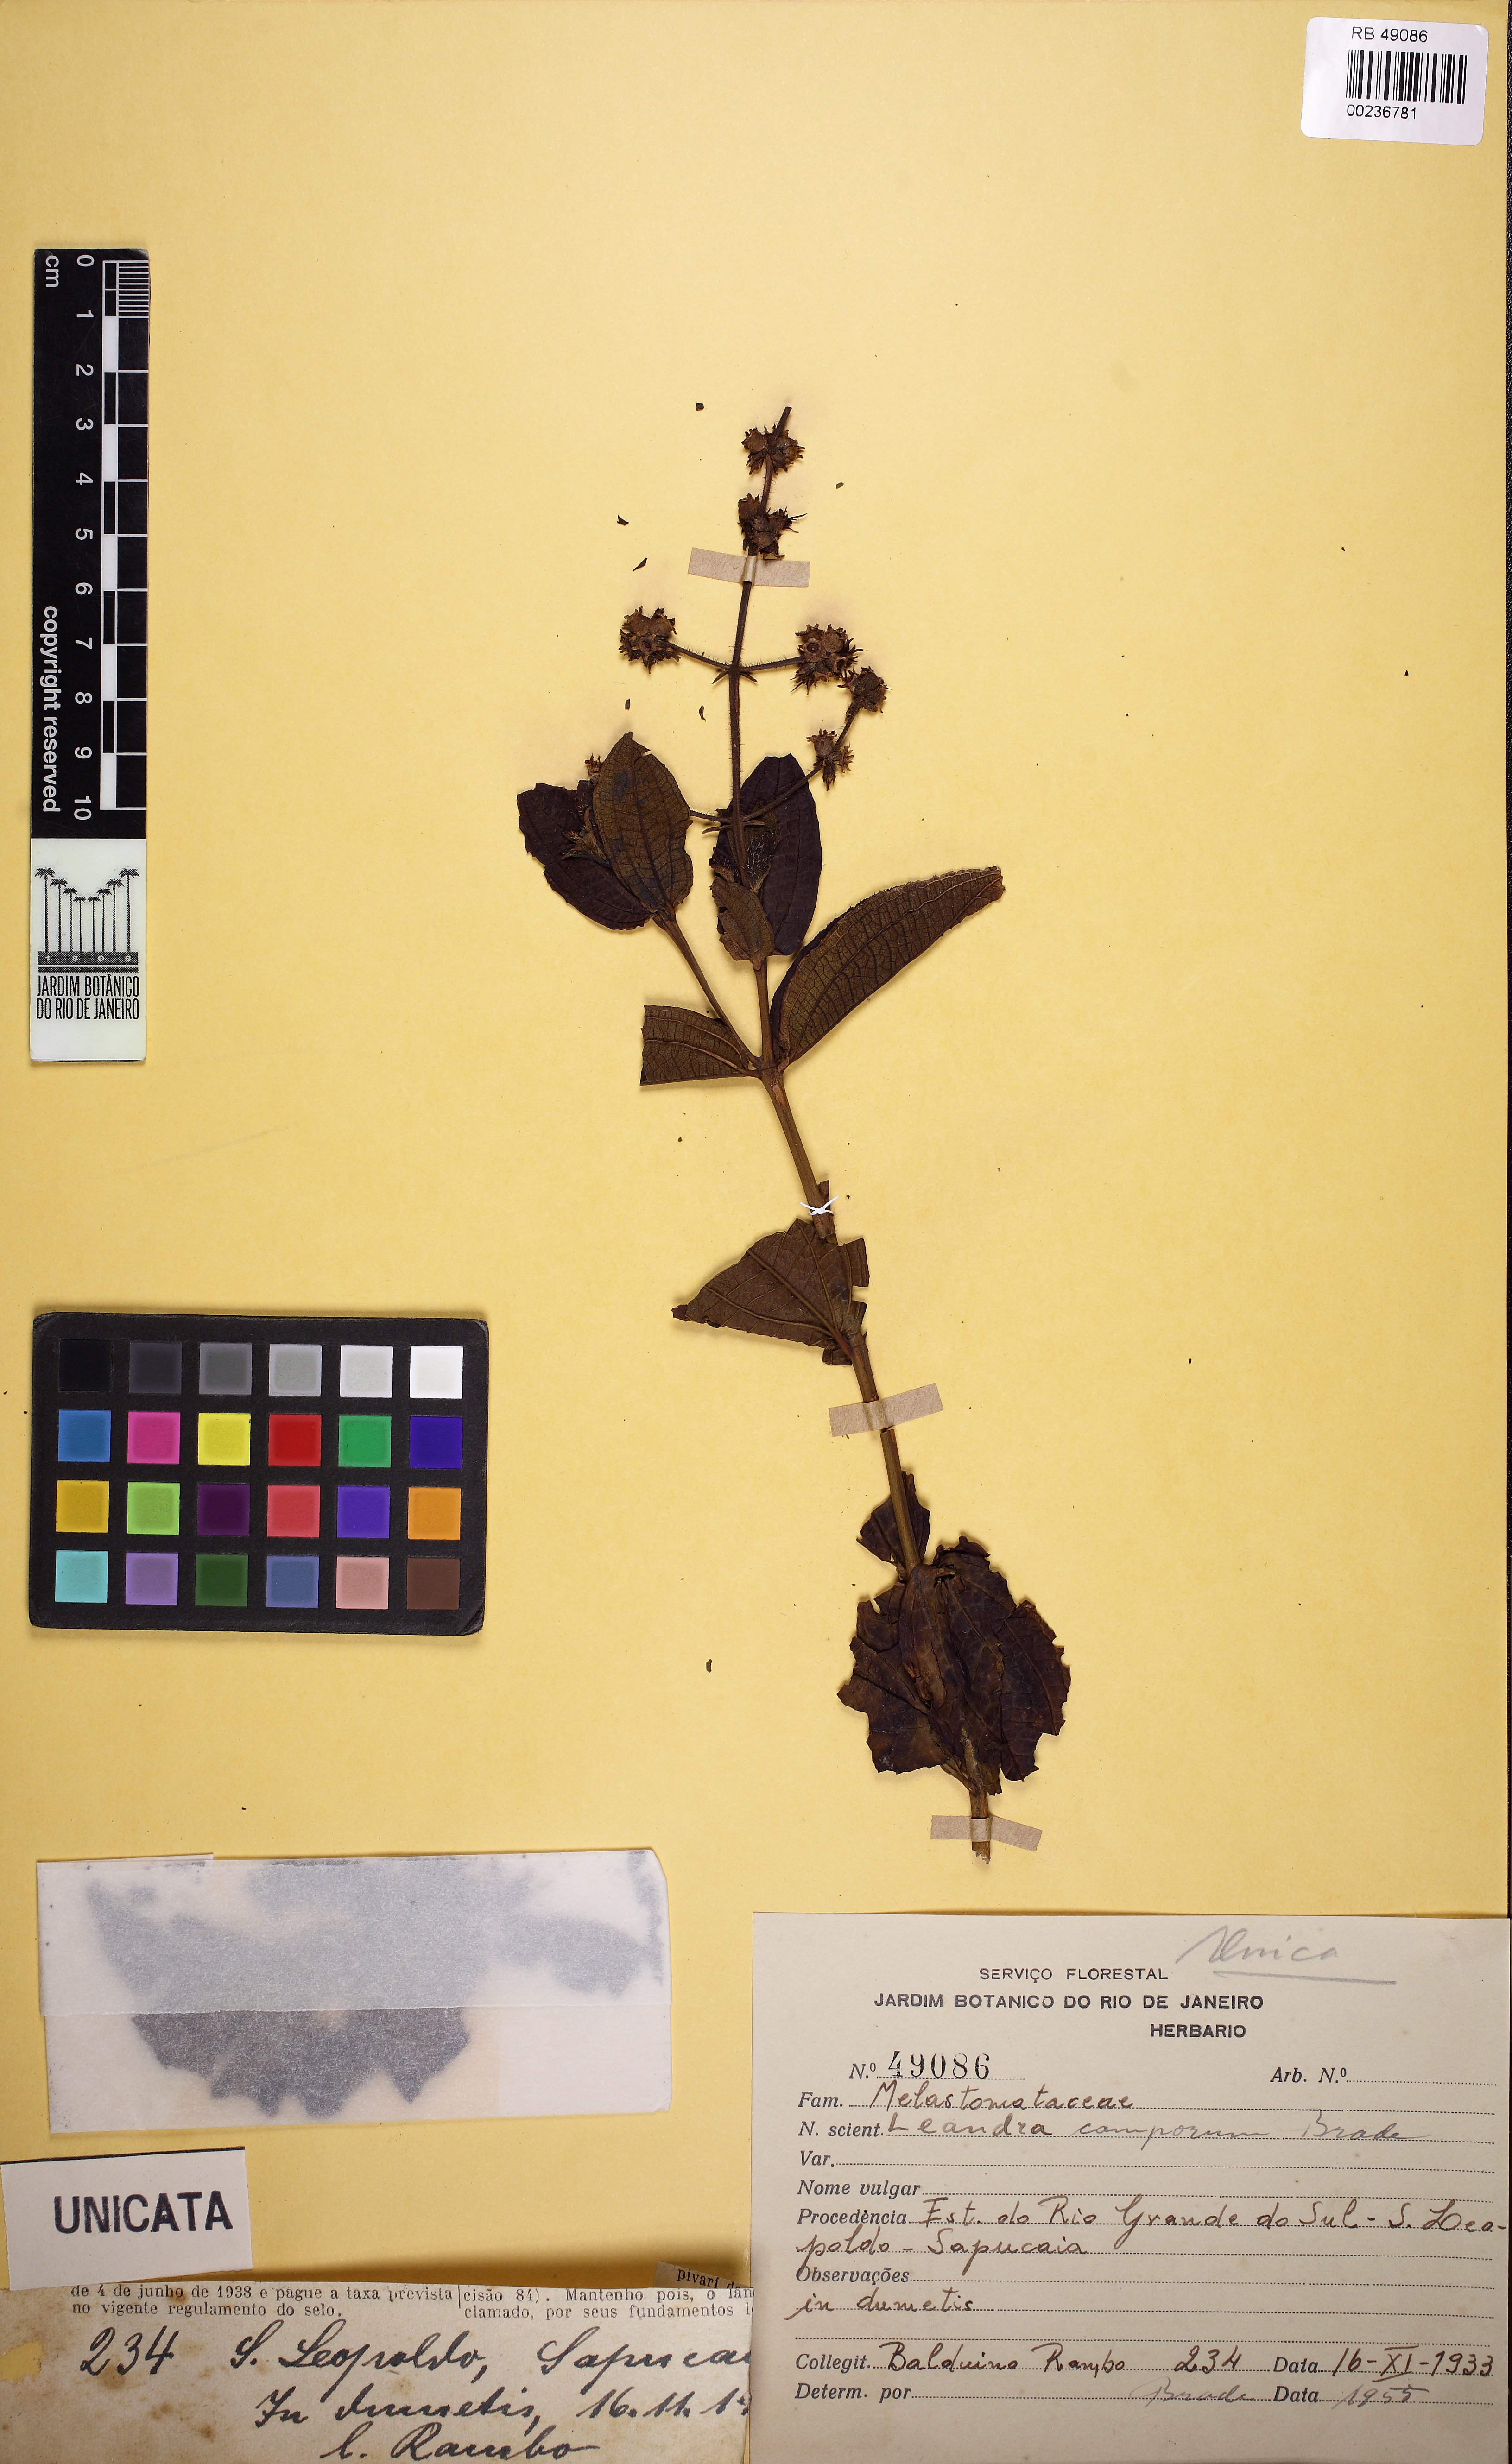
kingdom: Plantae
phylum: Tracheophyta
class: Magnoliopsida
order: Myrtales
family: Melastomataceae
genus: Miconia
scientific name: Miconia camporum
